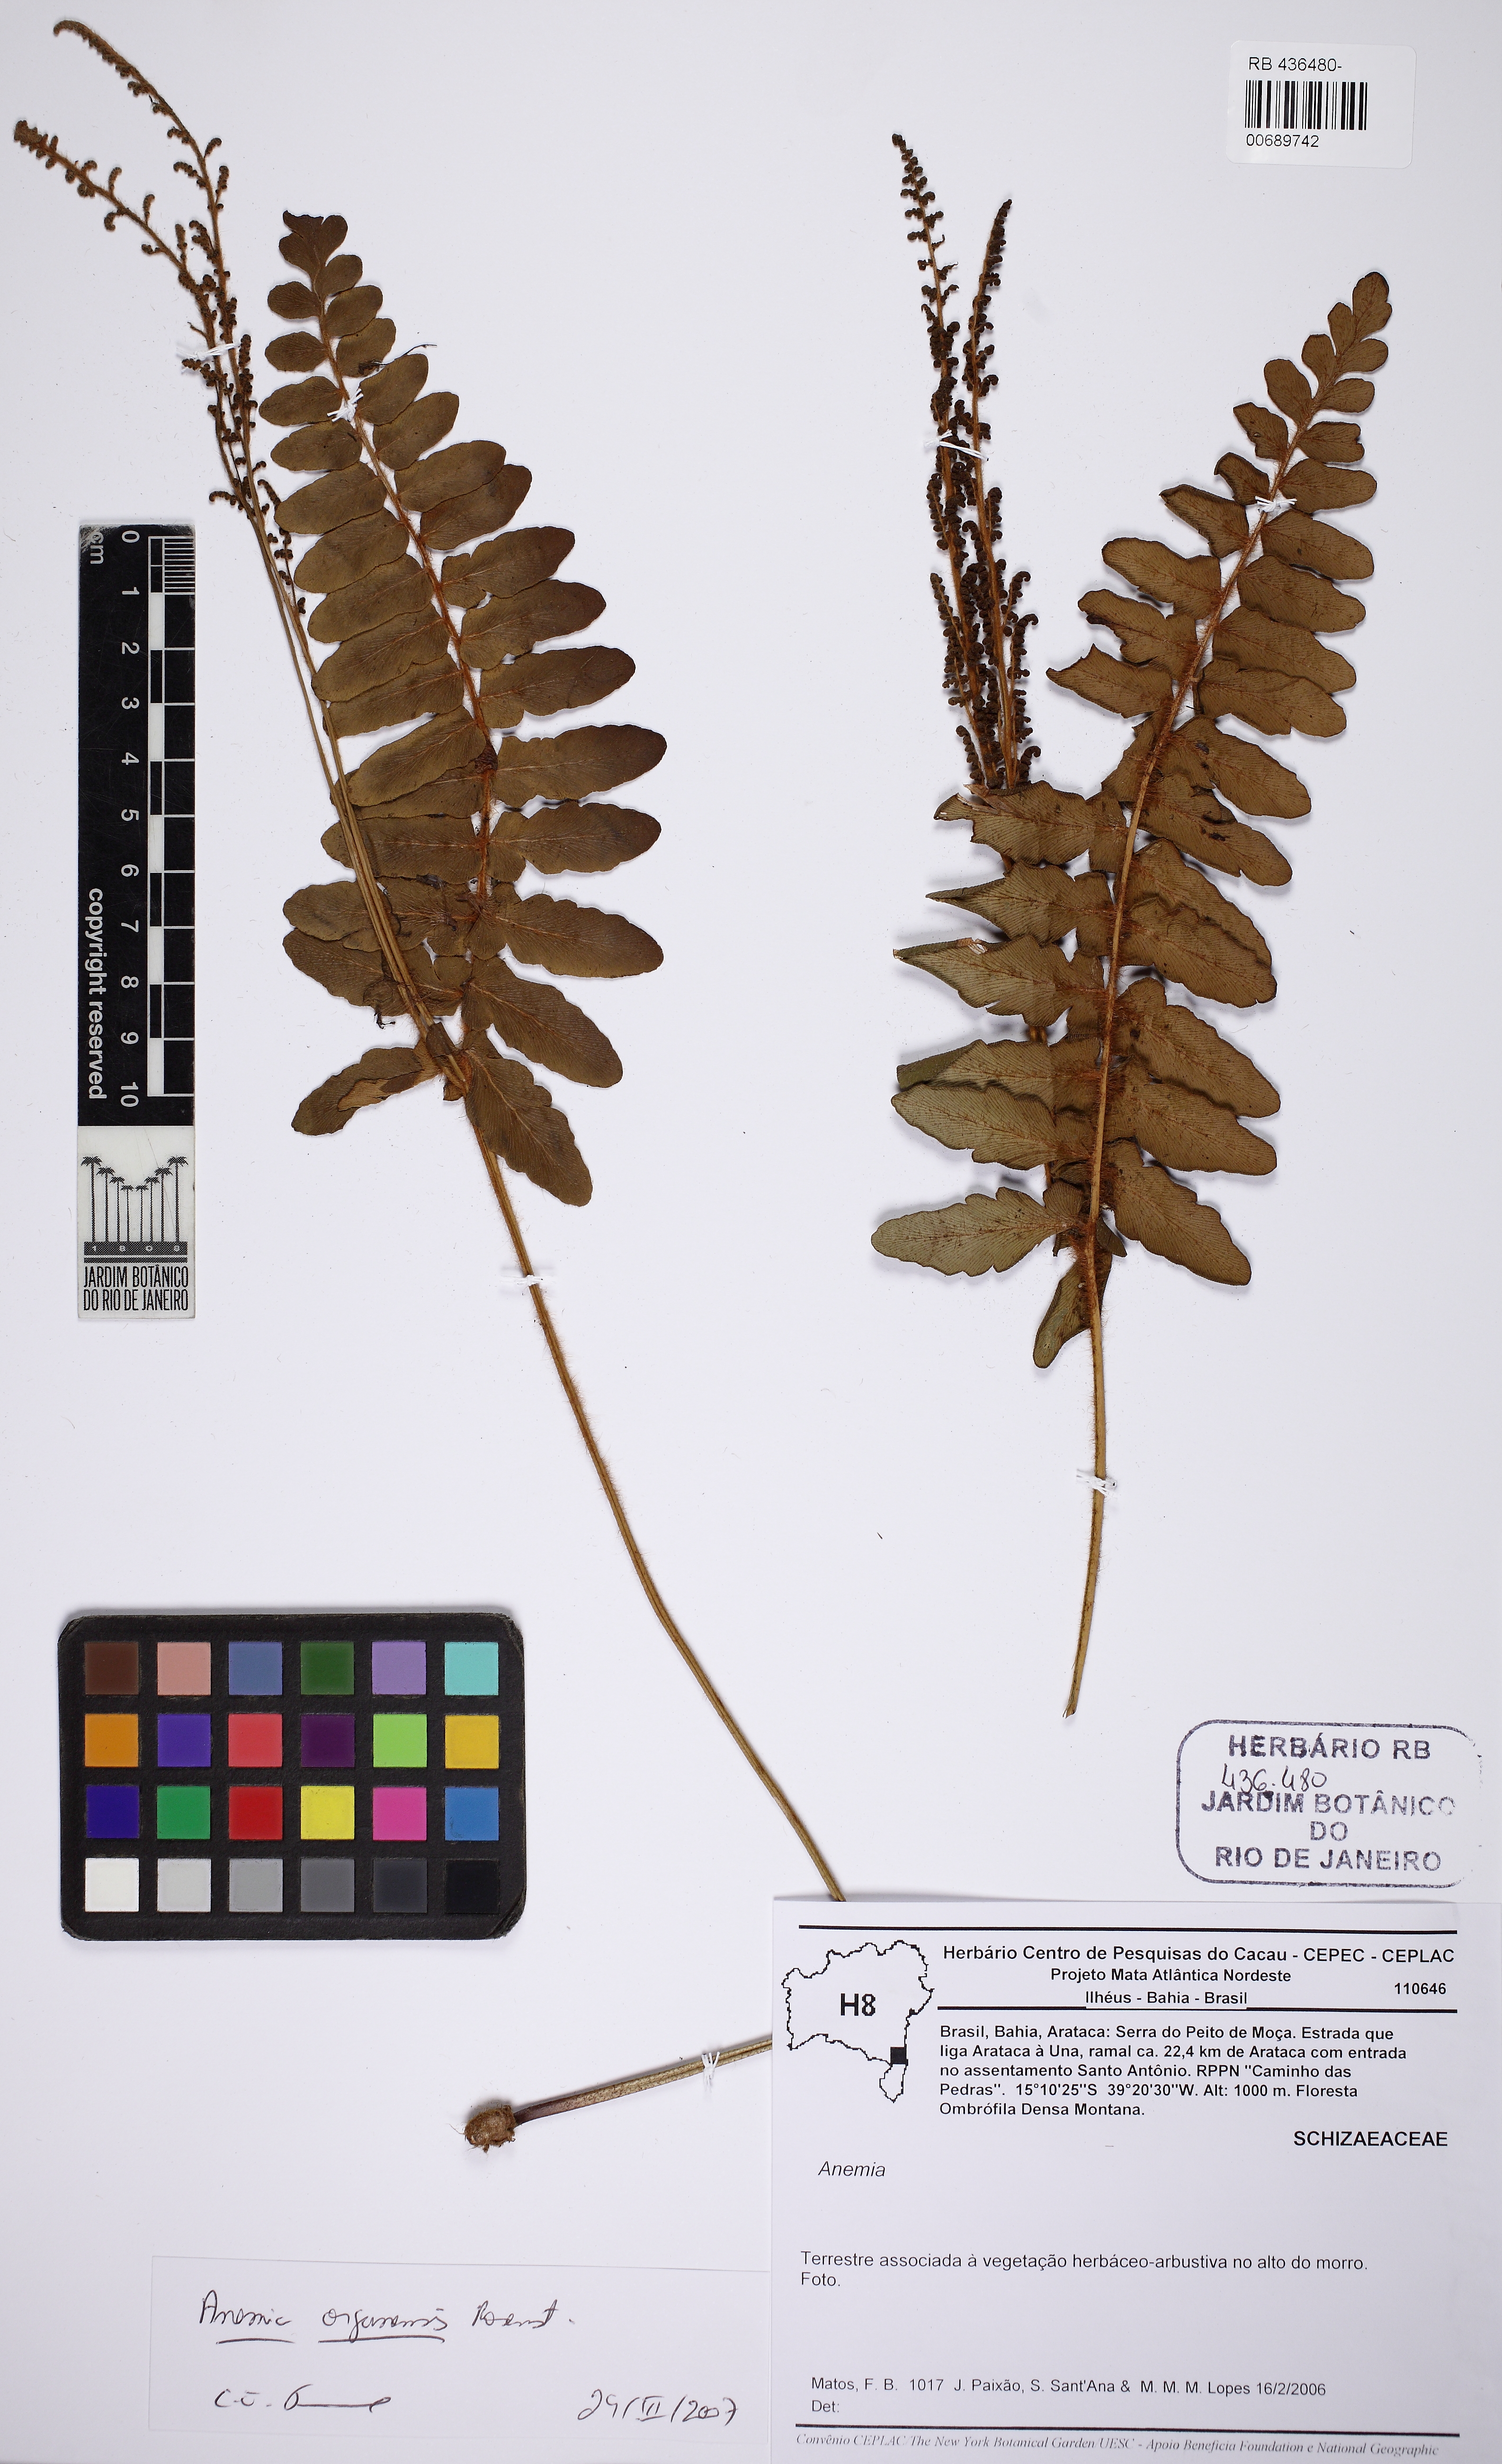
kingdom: Plantae
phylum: Tracheophyta
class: Polypodiopsida
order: Schizaeales
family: Anemiaceae
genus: Anemia
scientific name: Anemia organensis
